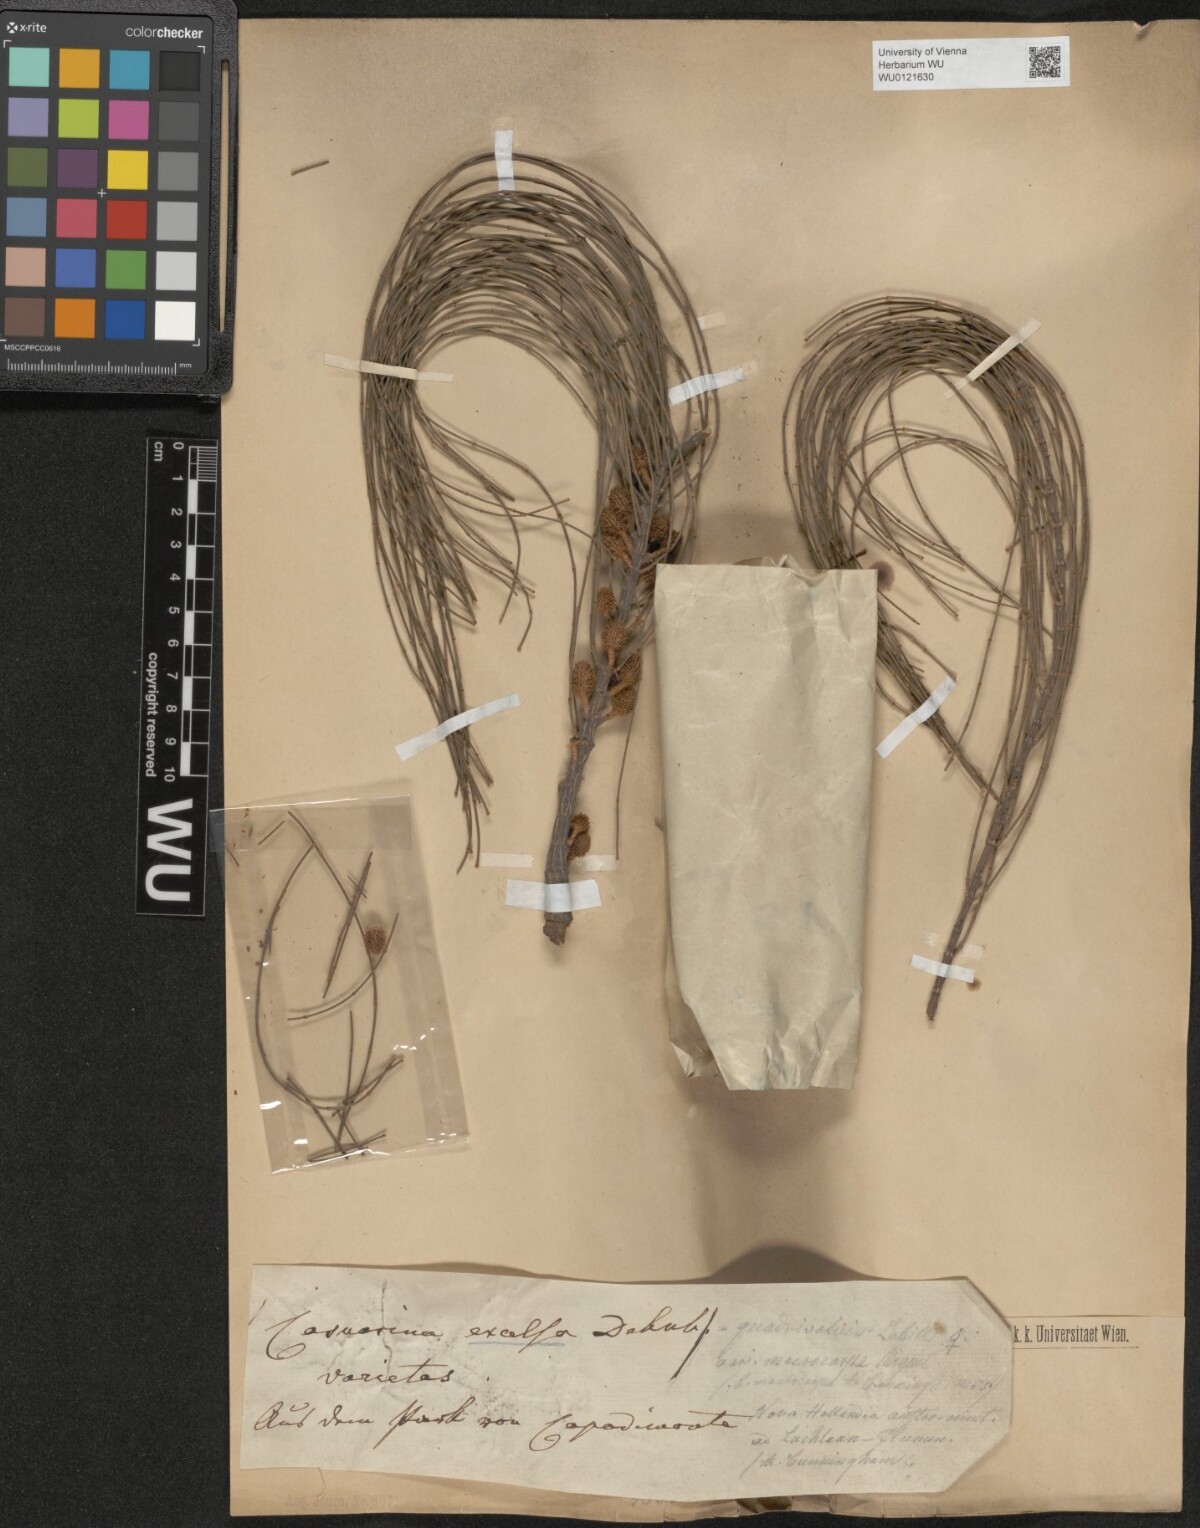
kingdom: Plantae
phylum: Tracheophyta
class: Magnoliopsida
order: Fagales
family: Casuarinaceae
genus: Casuarina
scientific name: Casuarina equisetifolia
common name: Beach sheoak
